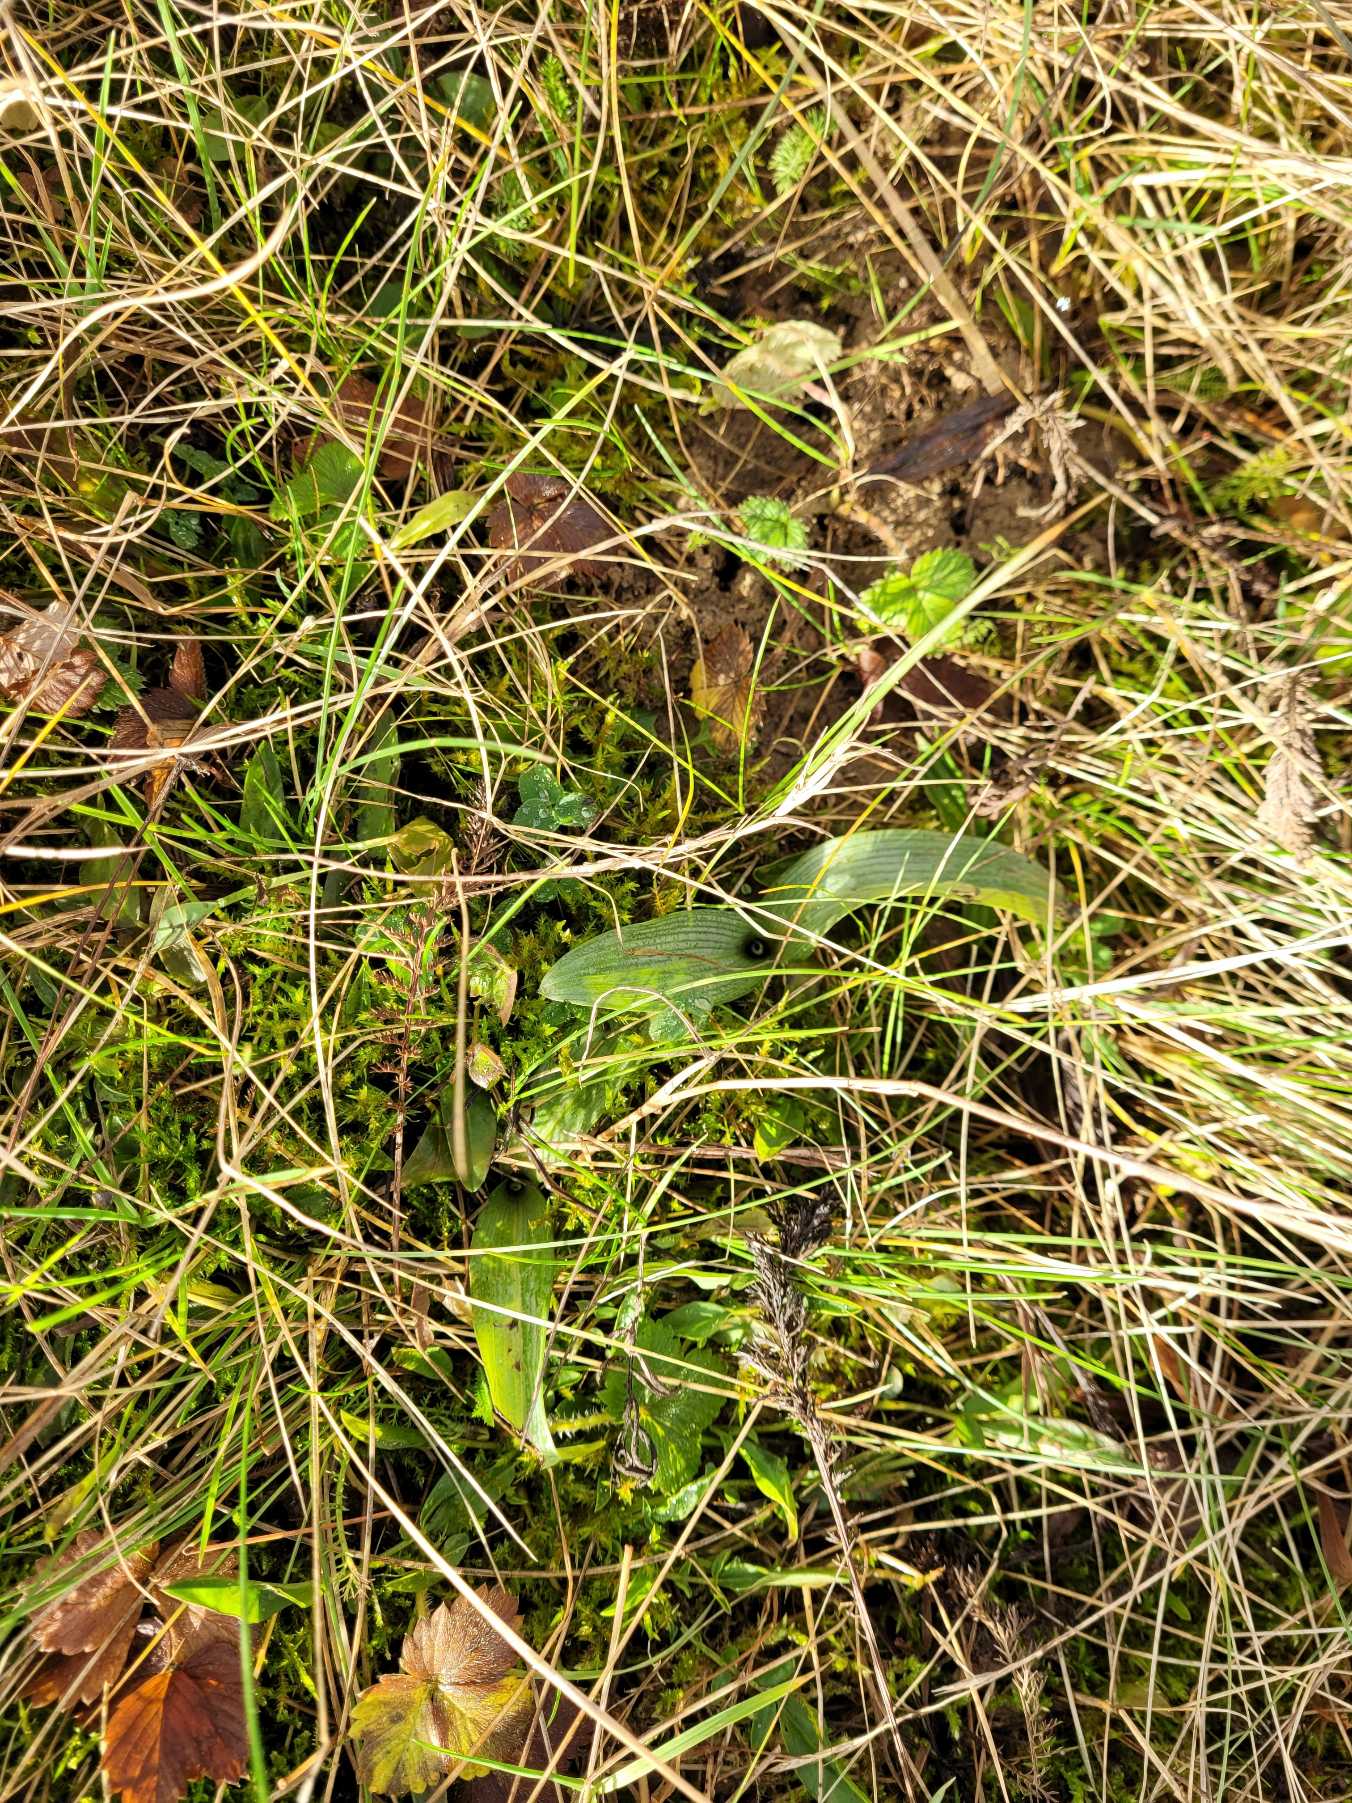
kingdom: Plantae
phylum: Tracheophyta
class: Liliopsida
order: Asparagales
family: Orchidaceae
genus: Ophrys
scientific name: Ophrys apifera
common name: Biblomst
